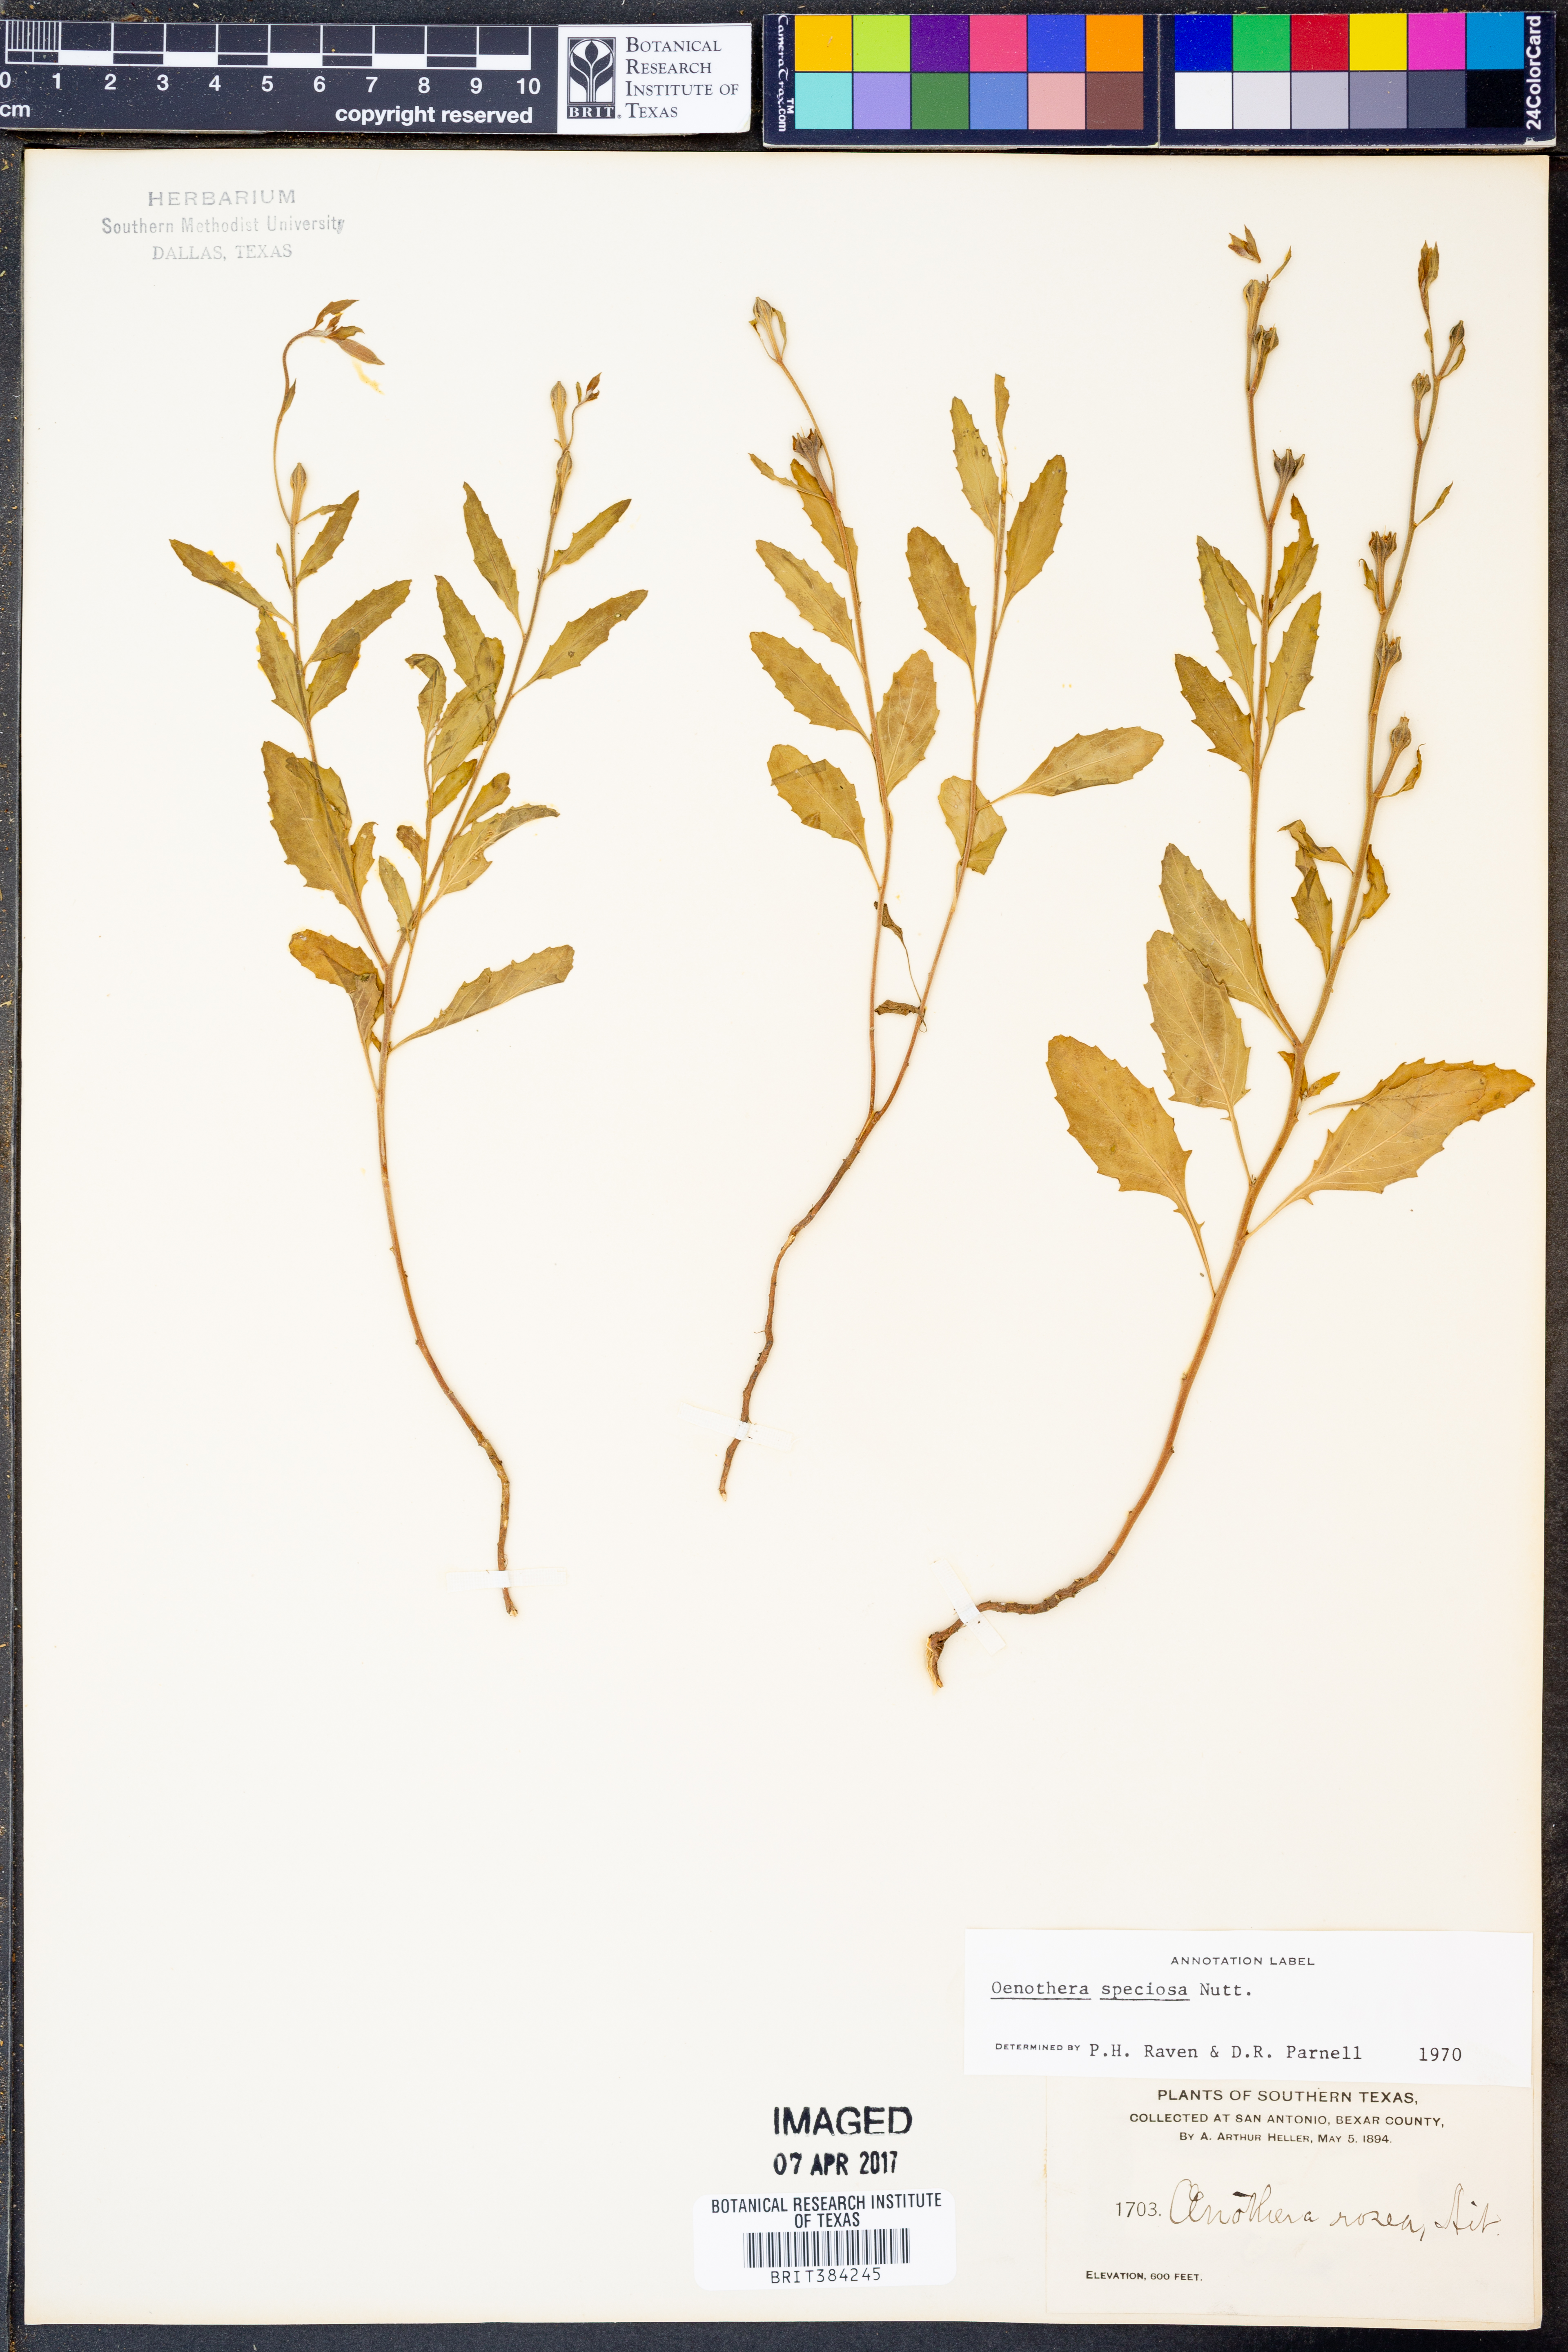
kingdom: Plantae
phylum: Tracheophyta
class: Magnoliopsida
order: Myrtales
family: Onagraceae
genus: Oenothera
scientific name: Oenothera speciosa
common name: White evening-primrose
